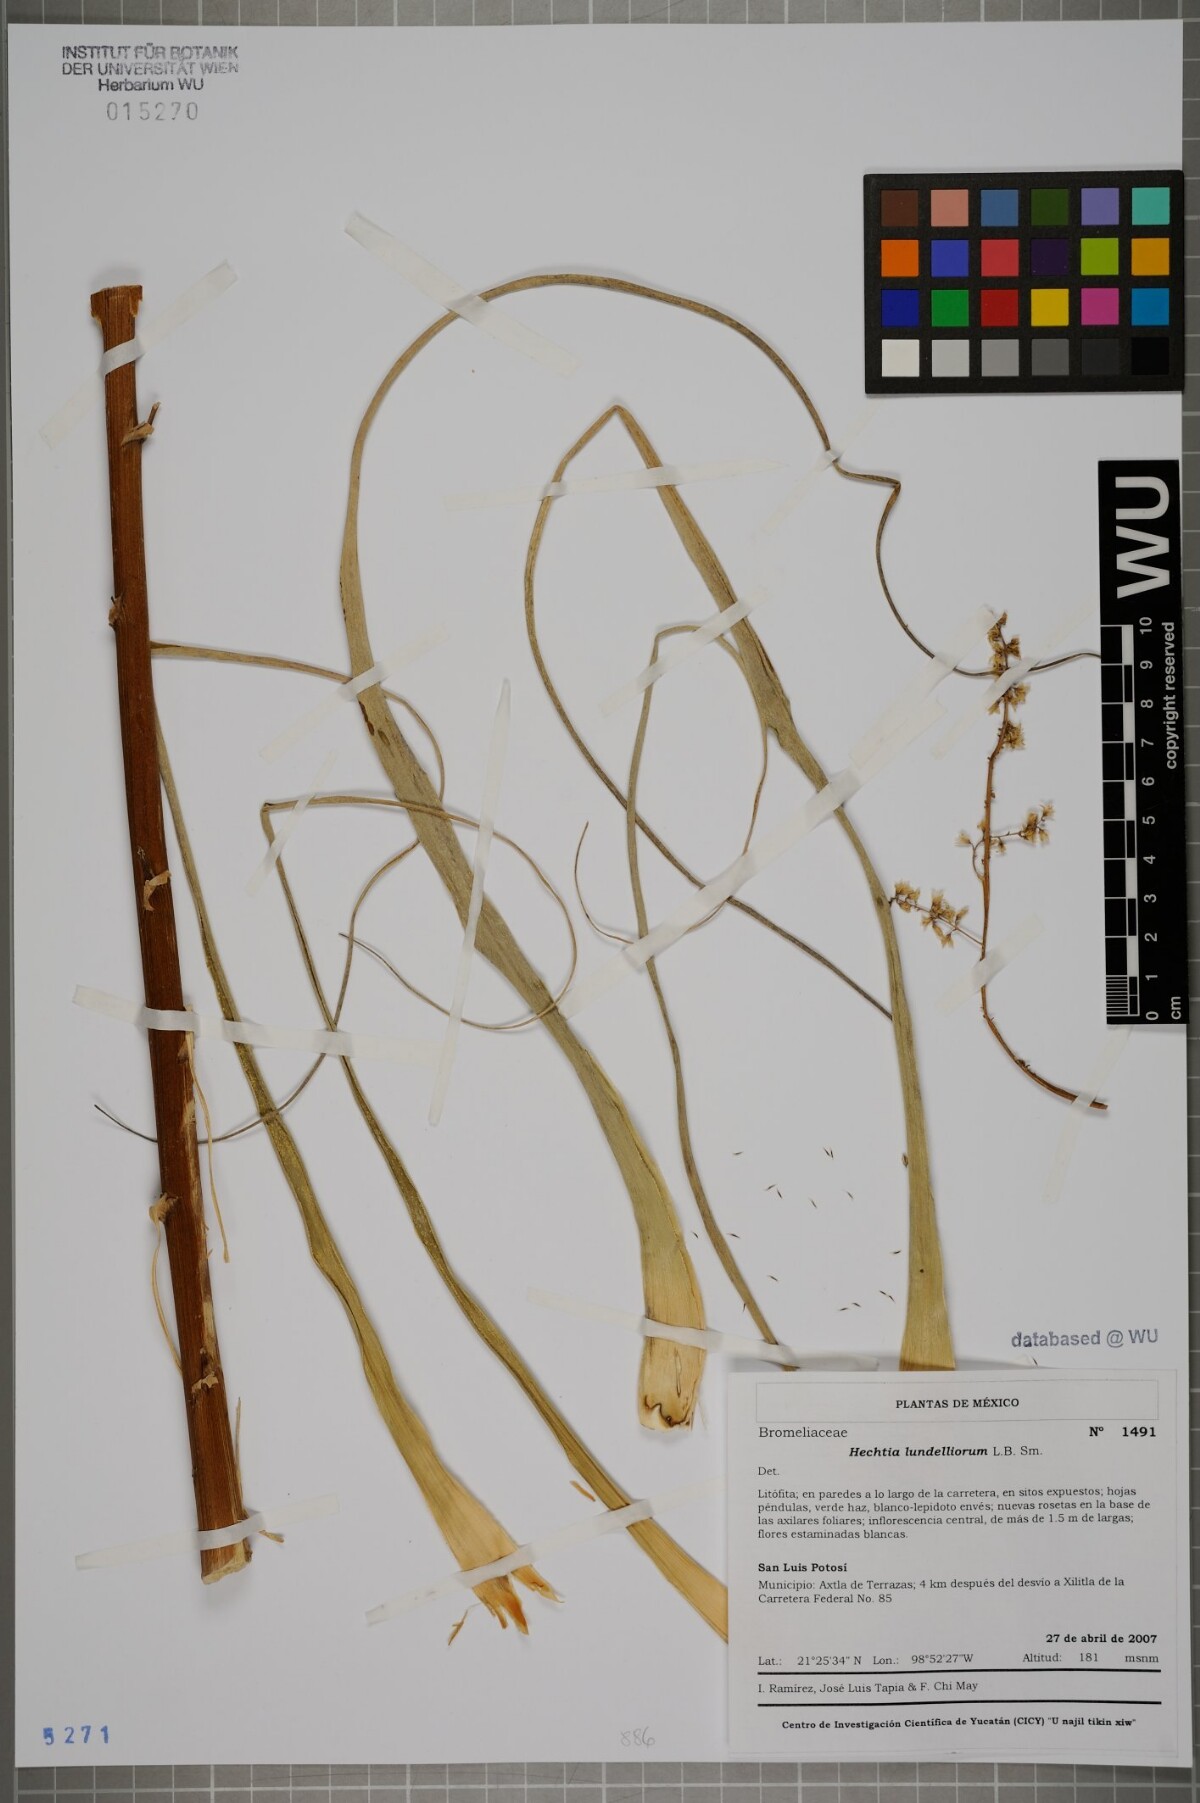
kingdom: Plantae
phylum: Tracheophyta
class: Liliopsida
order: Poales
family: Bromeliaceae
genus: Hechtia
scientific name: Hechtia lundelliorum
